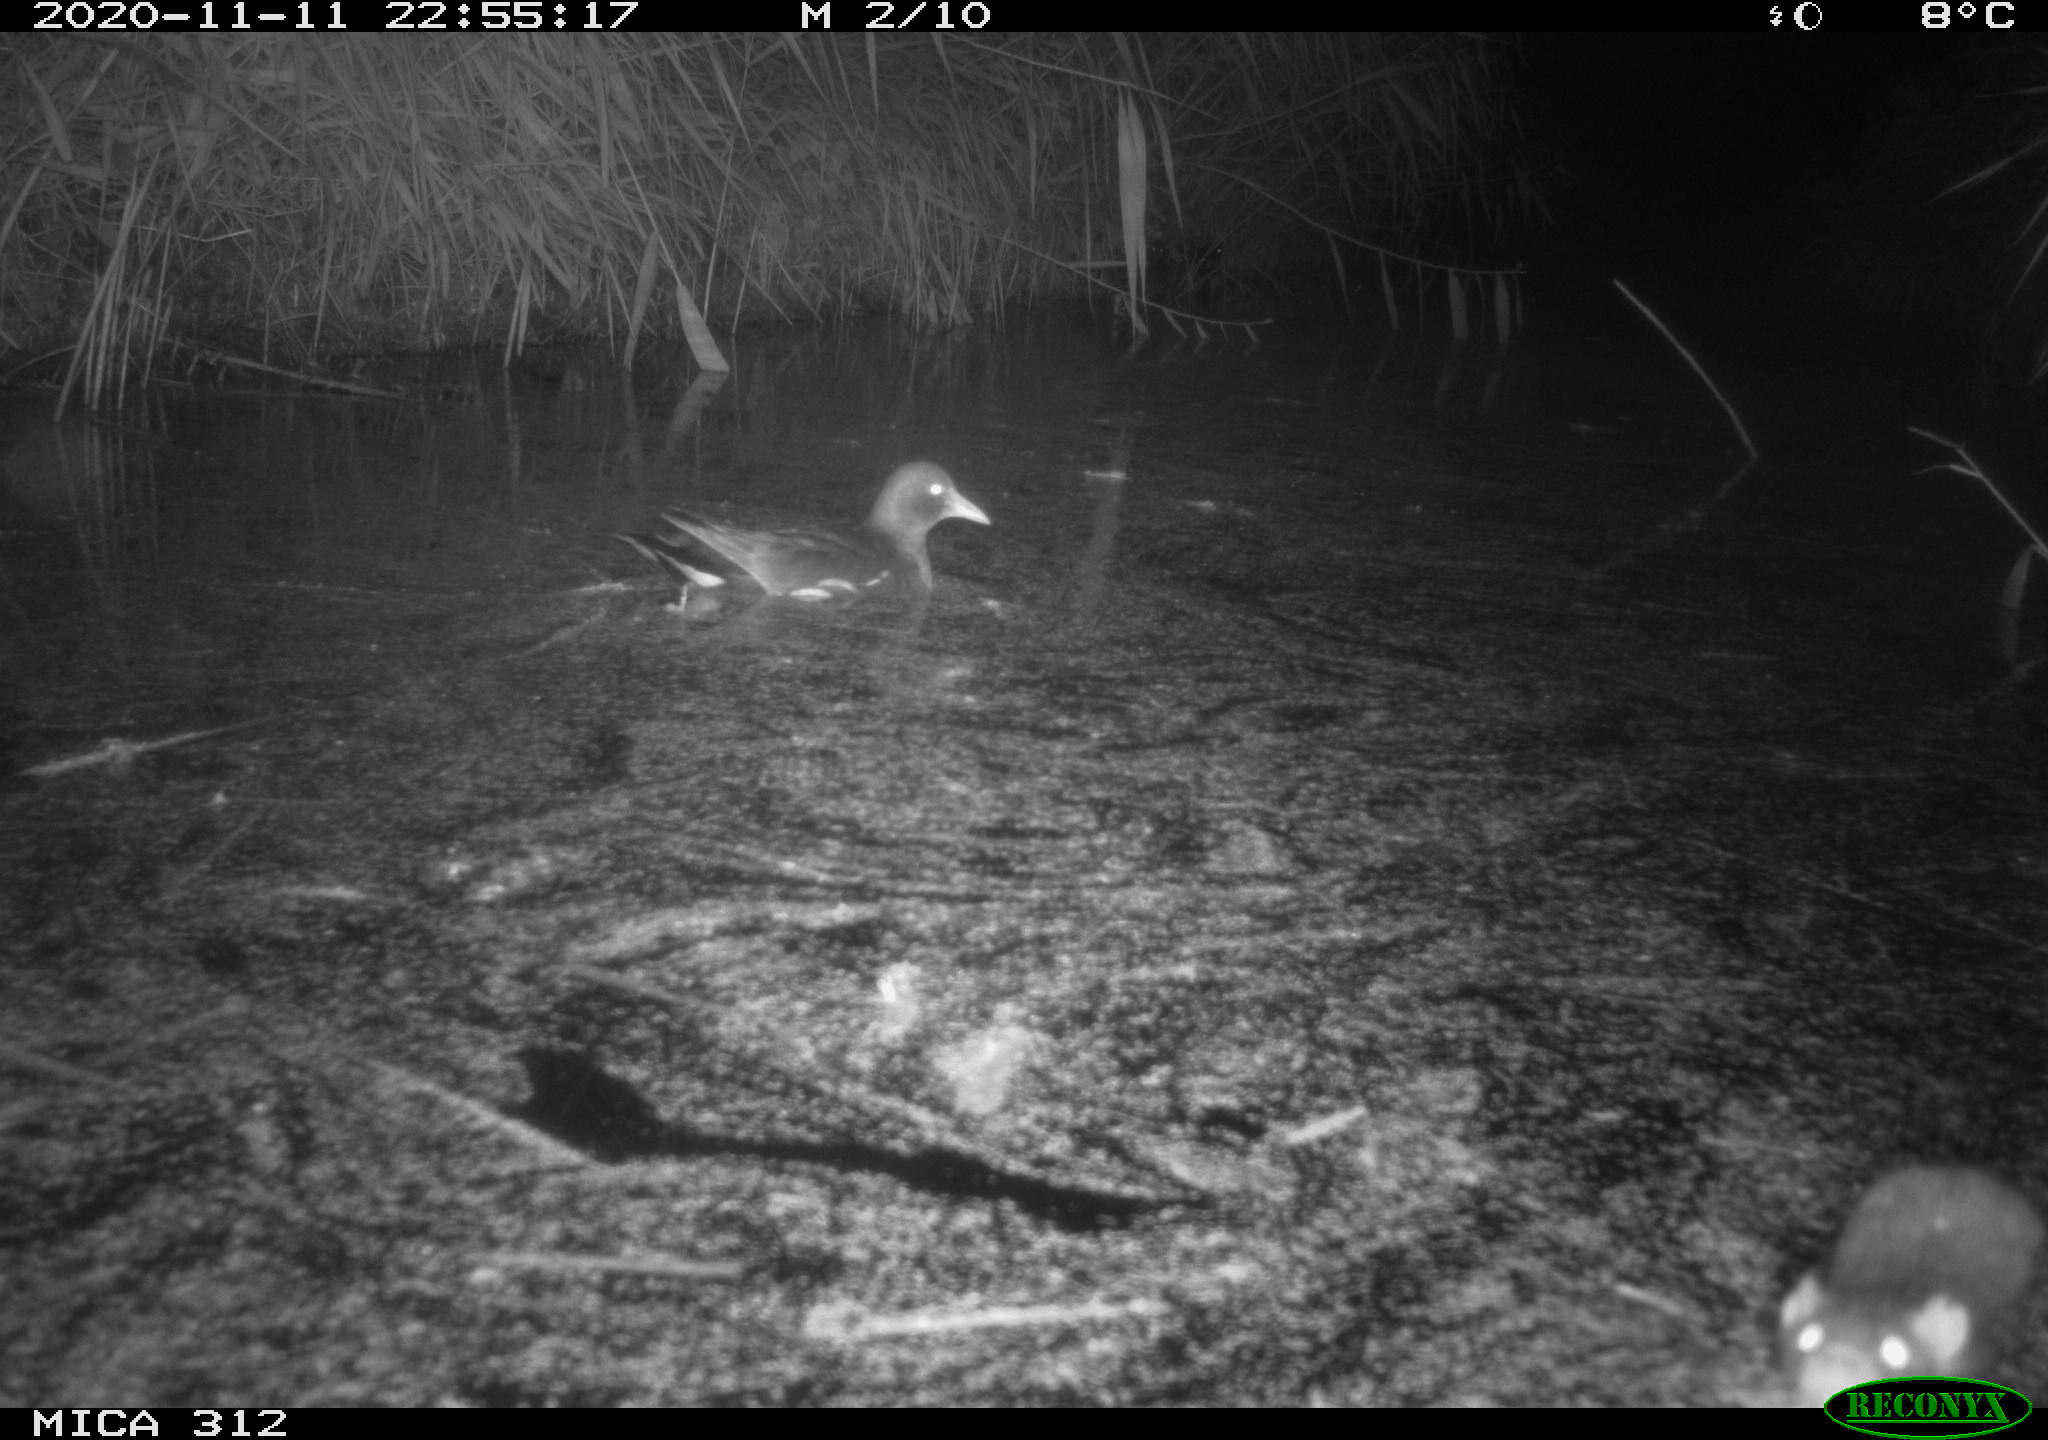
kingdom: Animalia
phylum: Chordata
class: Mammalia
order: Rodentia
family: Muridae
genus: Rattus
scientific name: Rattus norvegicus
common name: Brown rat
